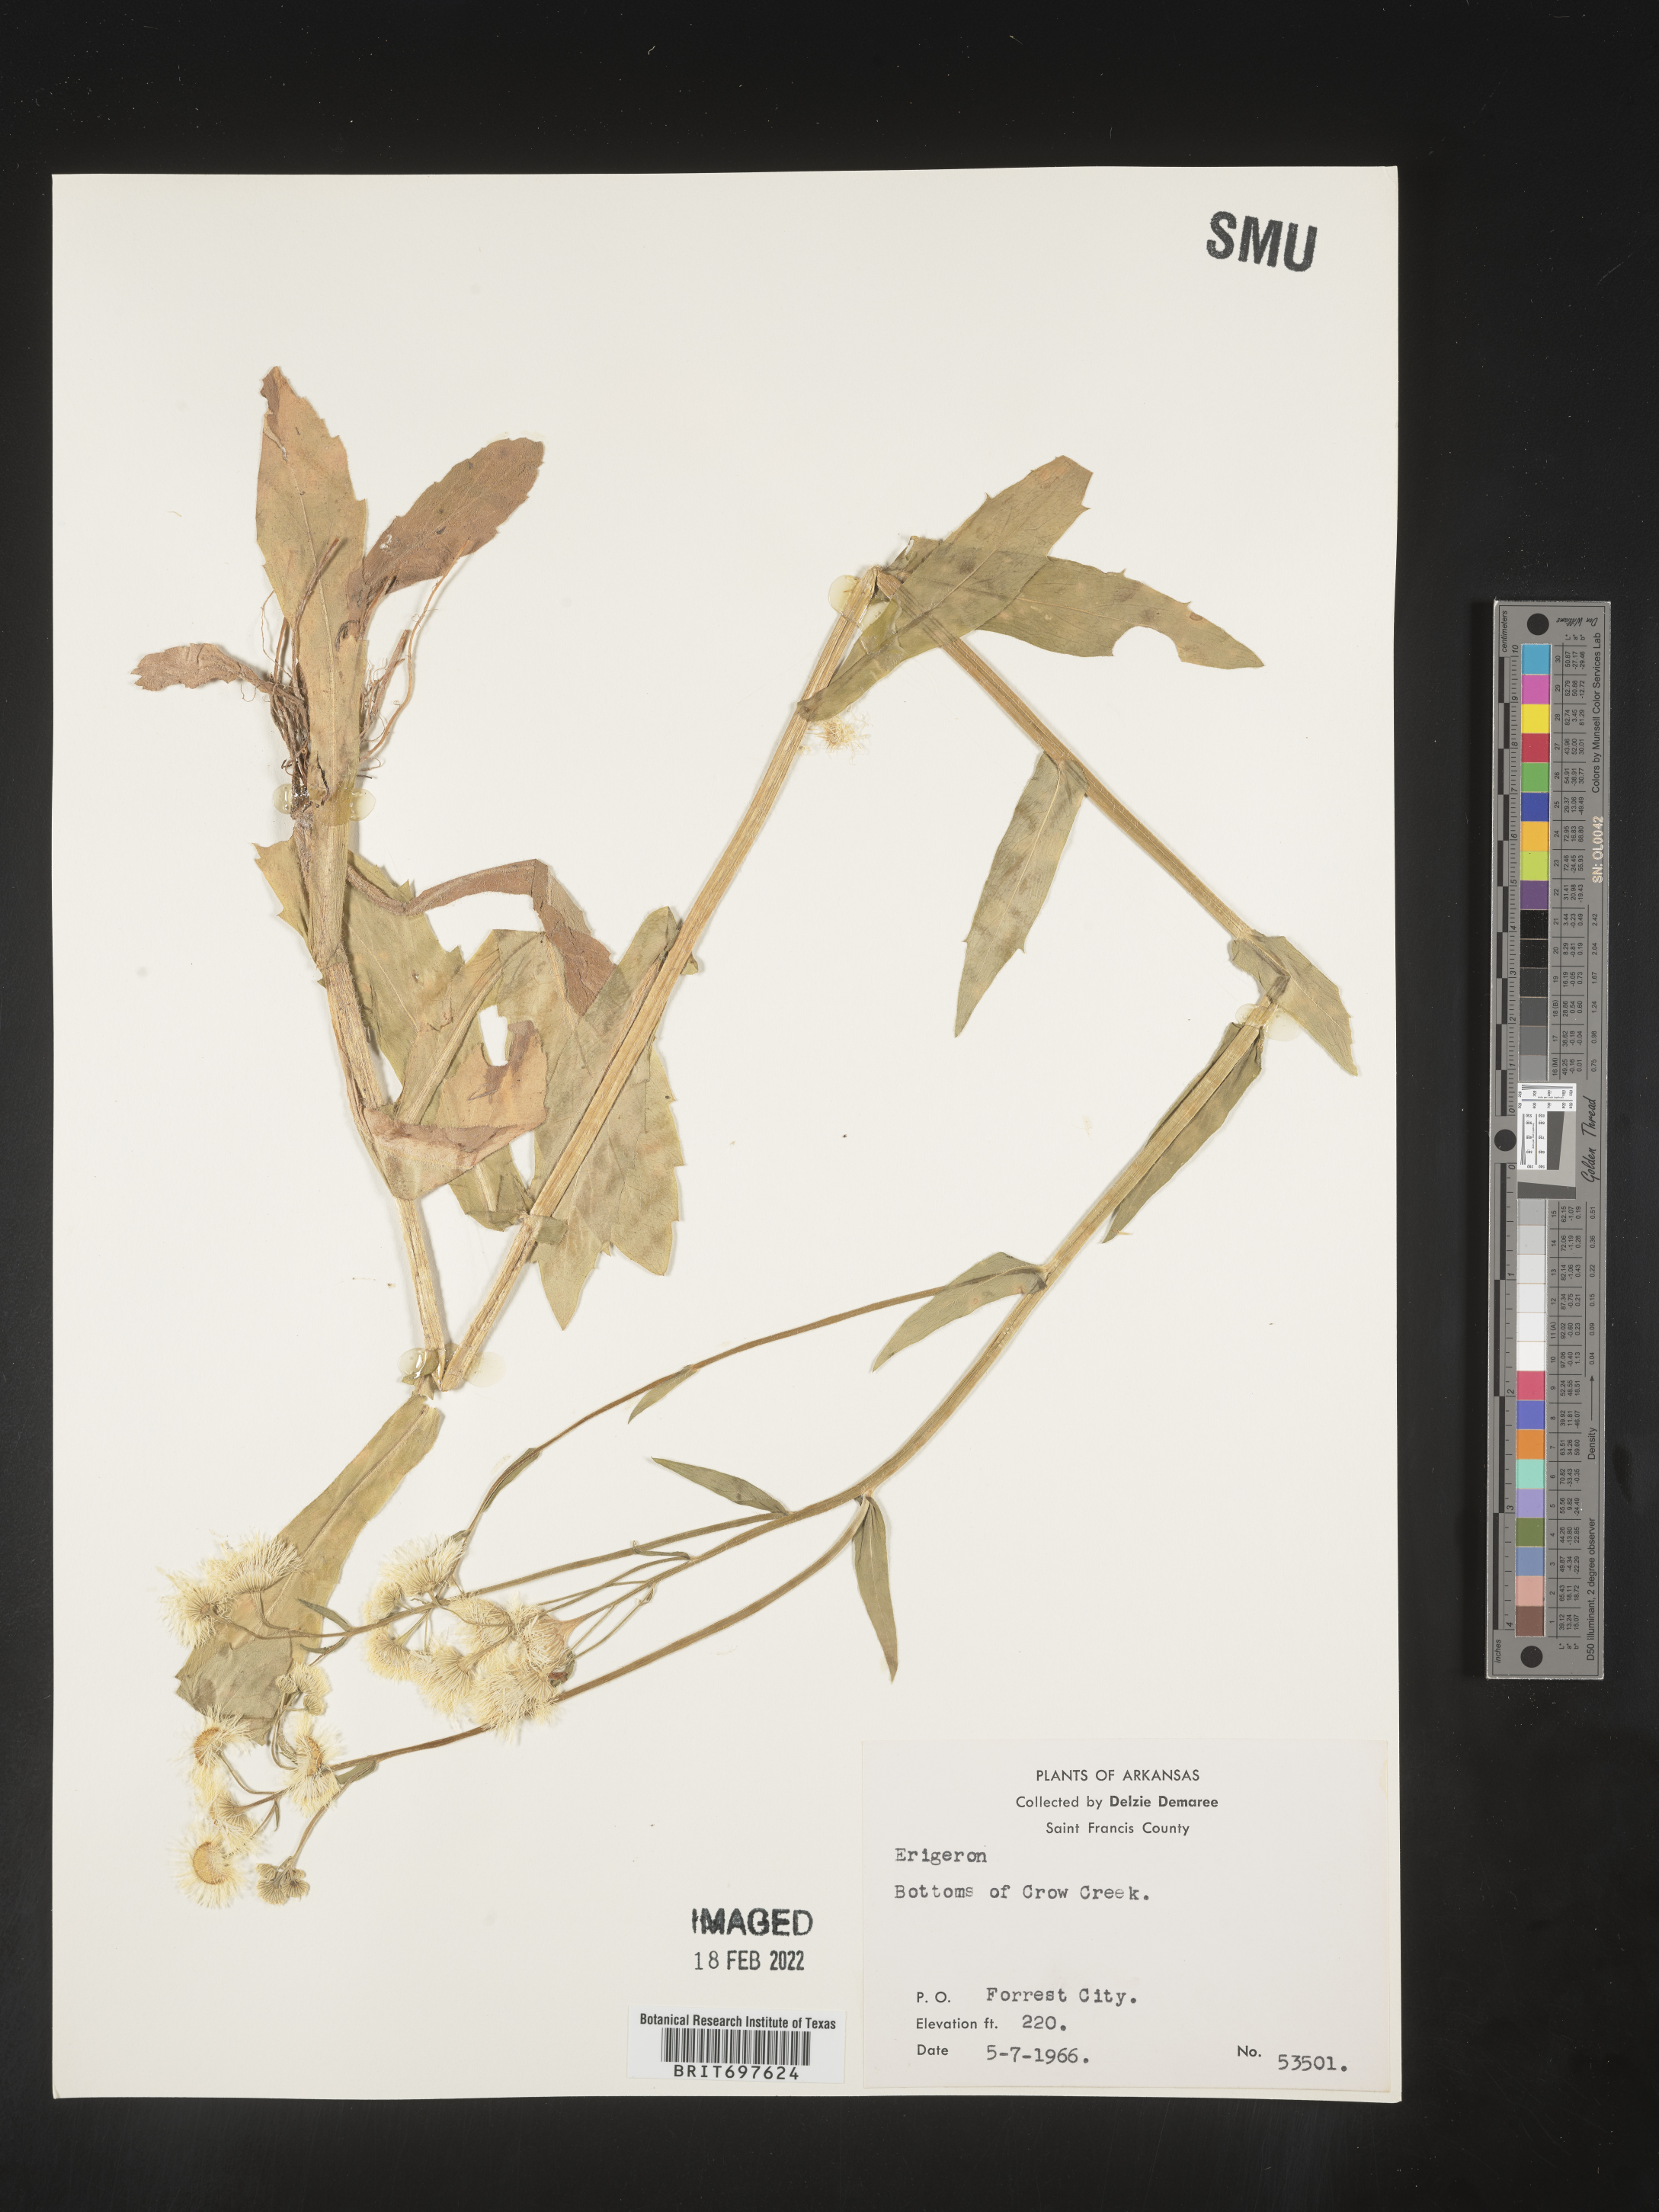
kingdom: Plantae
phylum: Tracheophyta
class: Magnoliopsida
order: Asterales
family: Asteraceae
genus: Erigeron
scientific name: Erigeron philadelphicus
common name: Robin's-plantain
